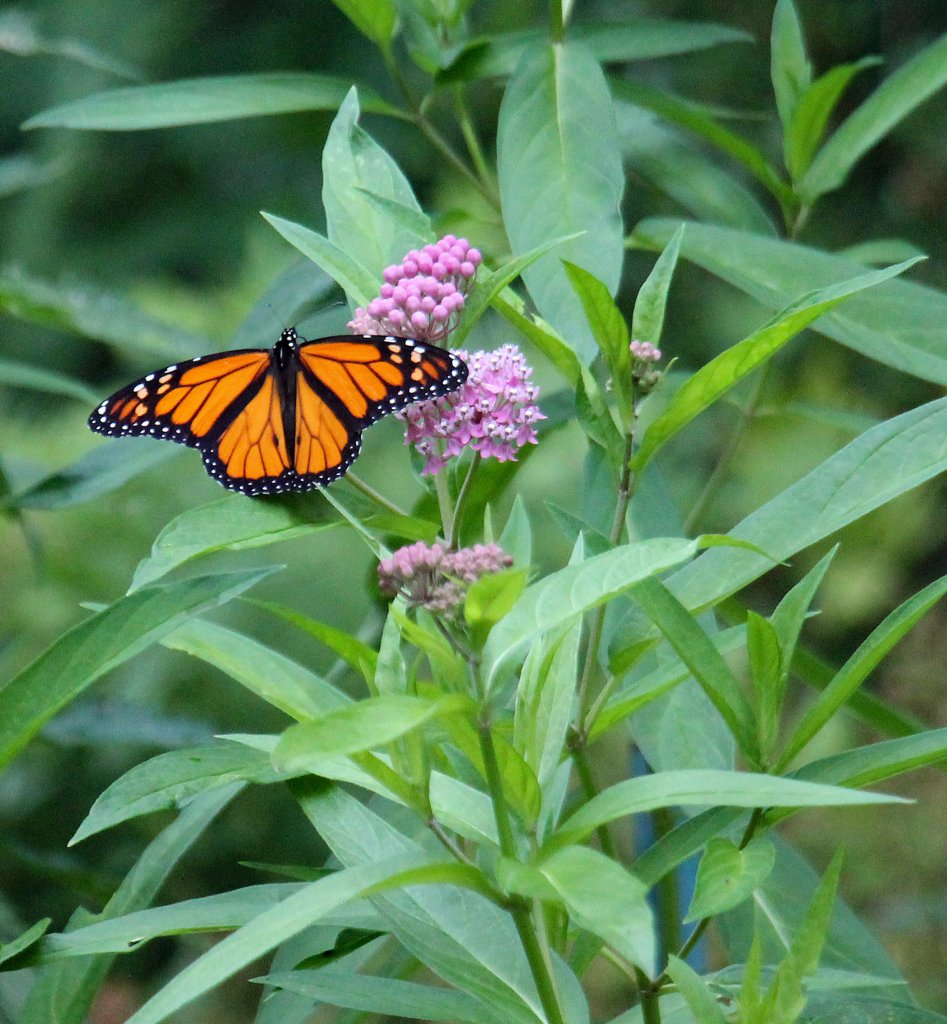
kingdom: Animalia
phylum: Arthropoda
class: Insecta
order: Lepidoptera
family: Nymphalidae
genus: Danaus
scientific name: Danaus plexippus
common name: Monarch
